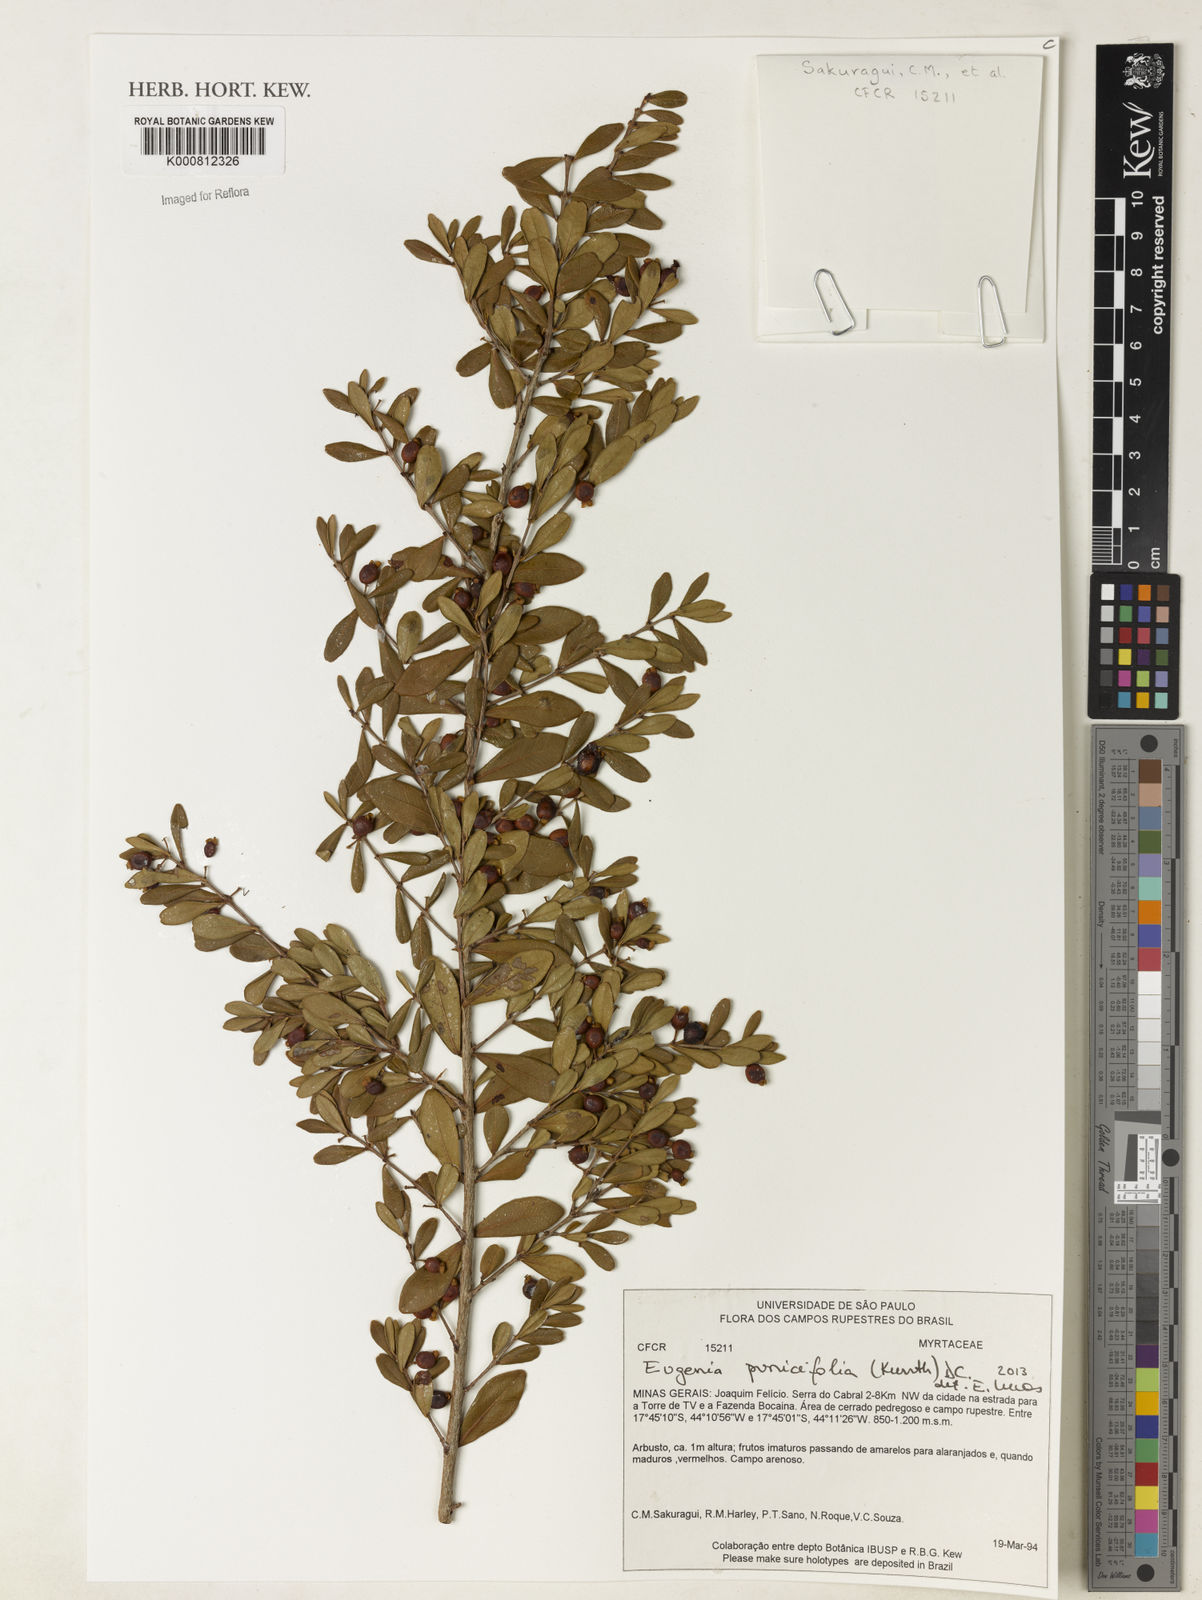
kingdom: Plantae
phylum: Tracheophyta
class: Magnoliopsida
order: Myrtales
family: Myrtaceae
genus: Eugenia
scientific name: Eugenia punicifolia
